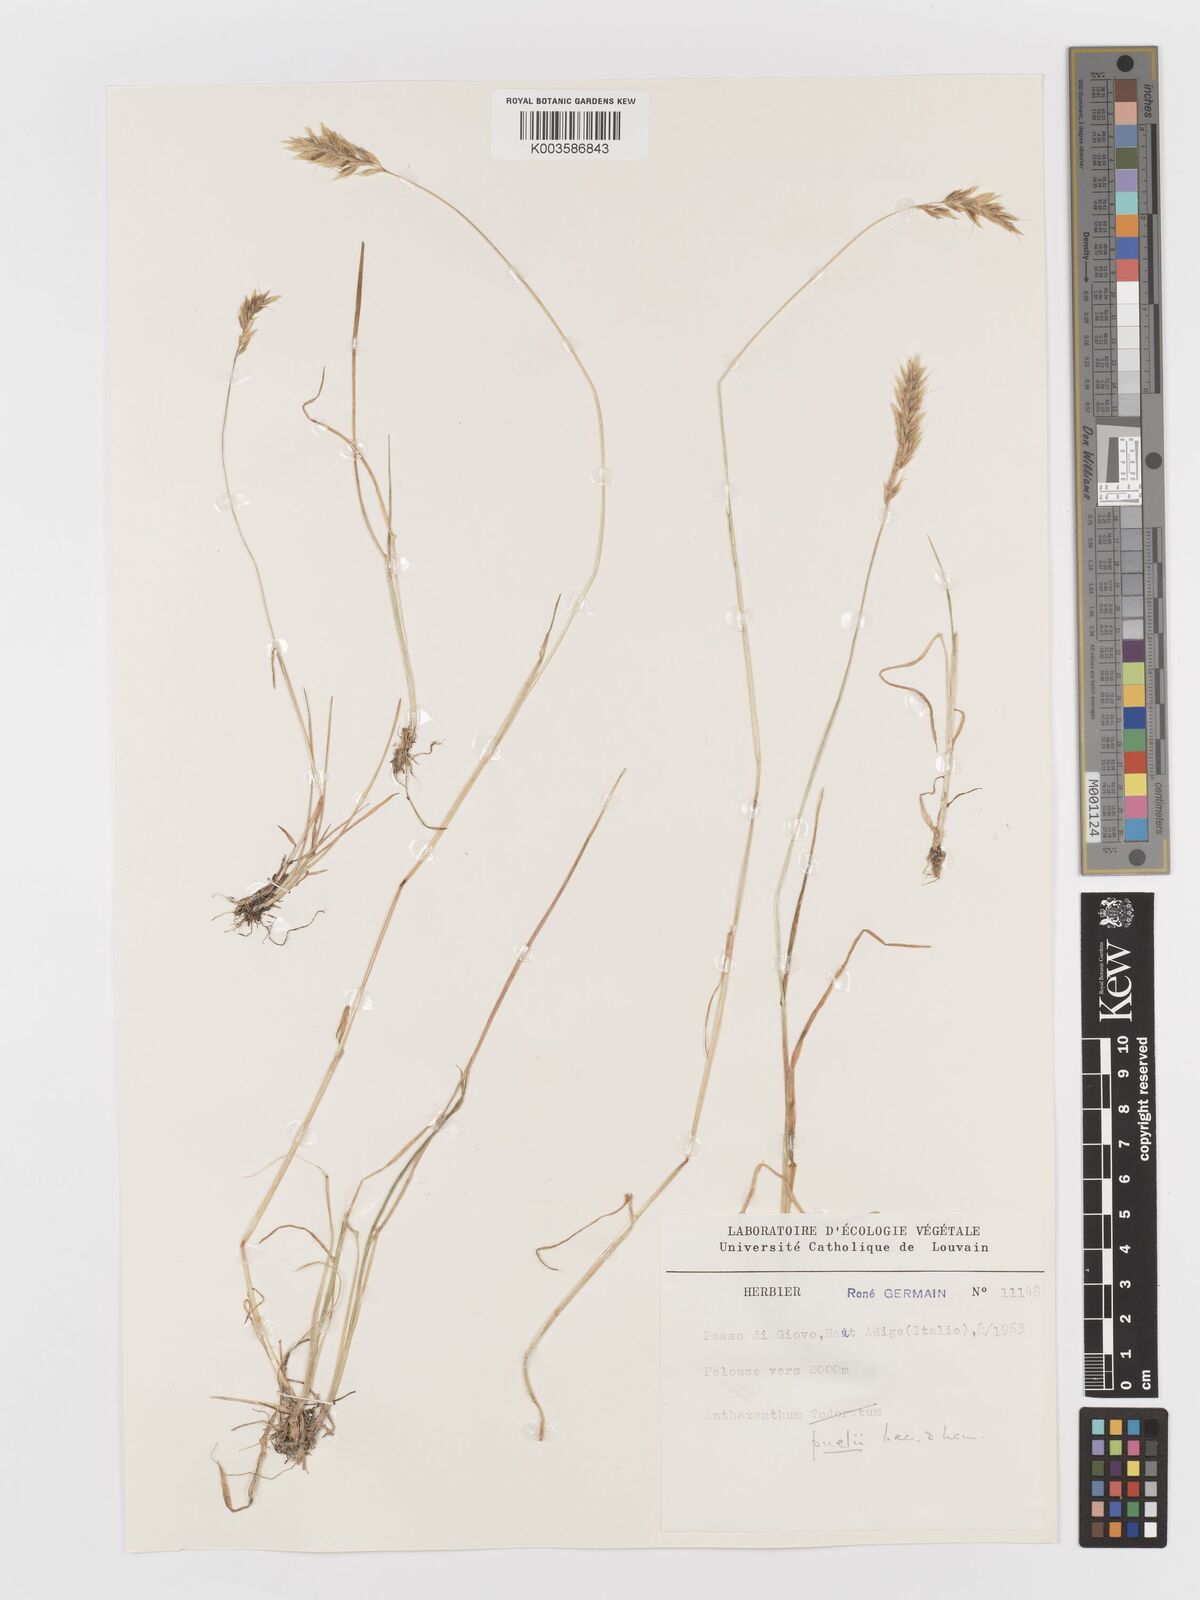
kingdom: Plantae
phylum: Tracheophyta
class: Liliopsida
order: Poales
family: Poaceae
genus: Anthoxanthum
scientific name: Anthoxanthum
